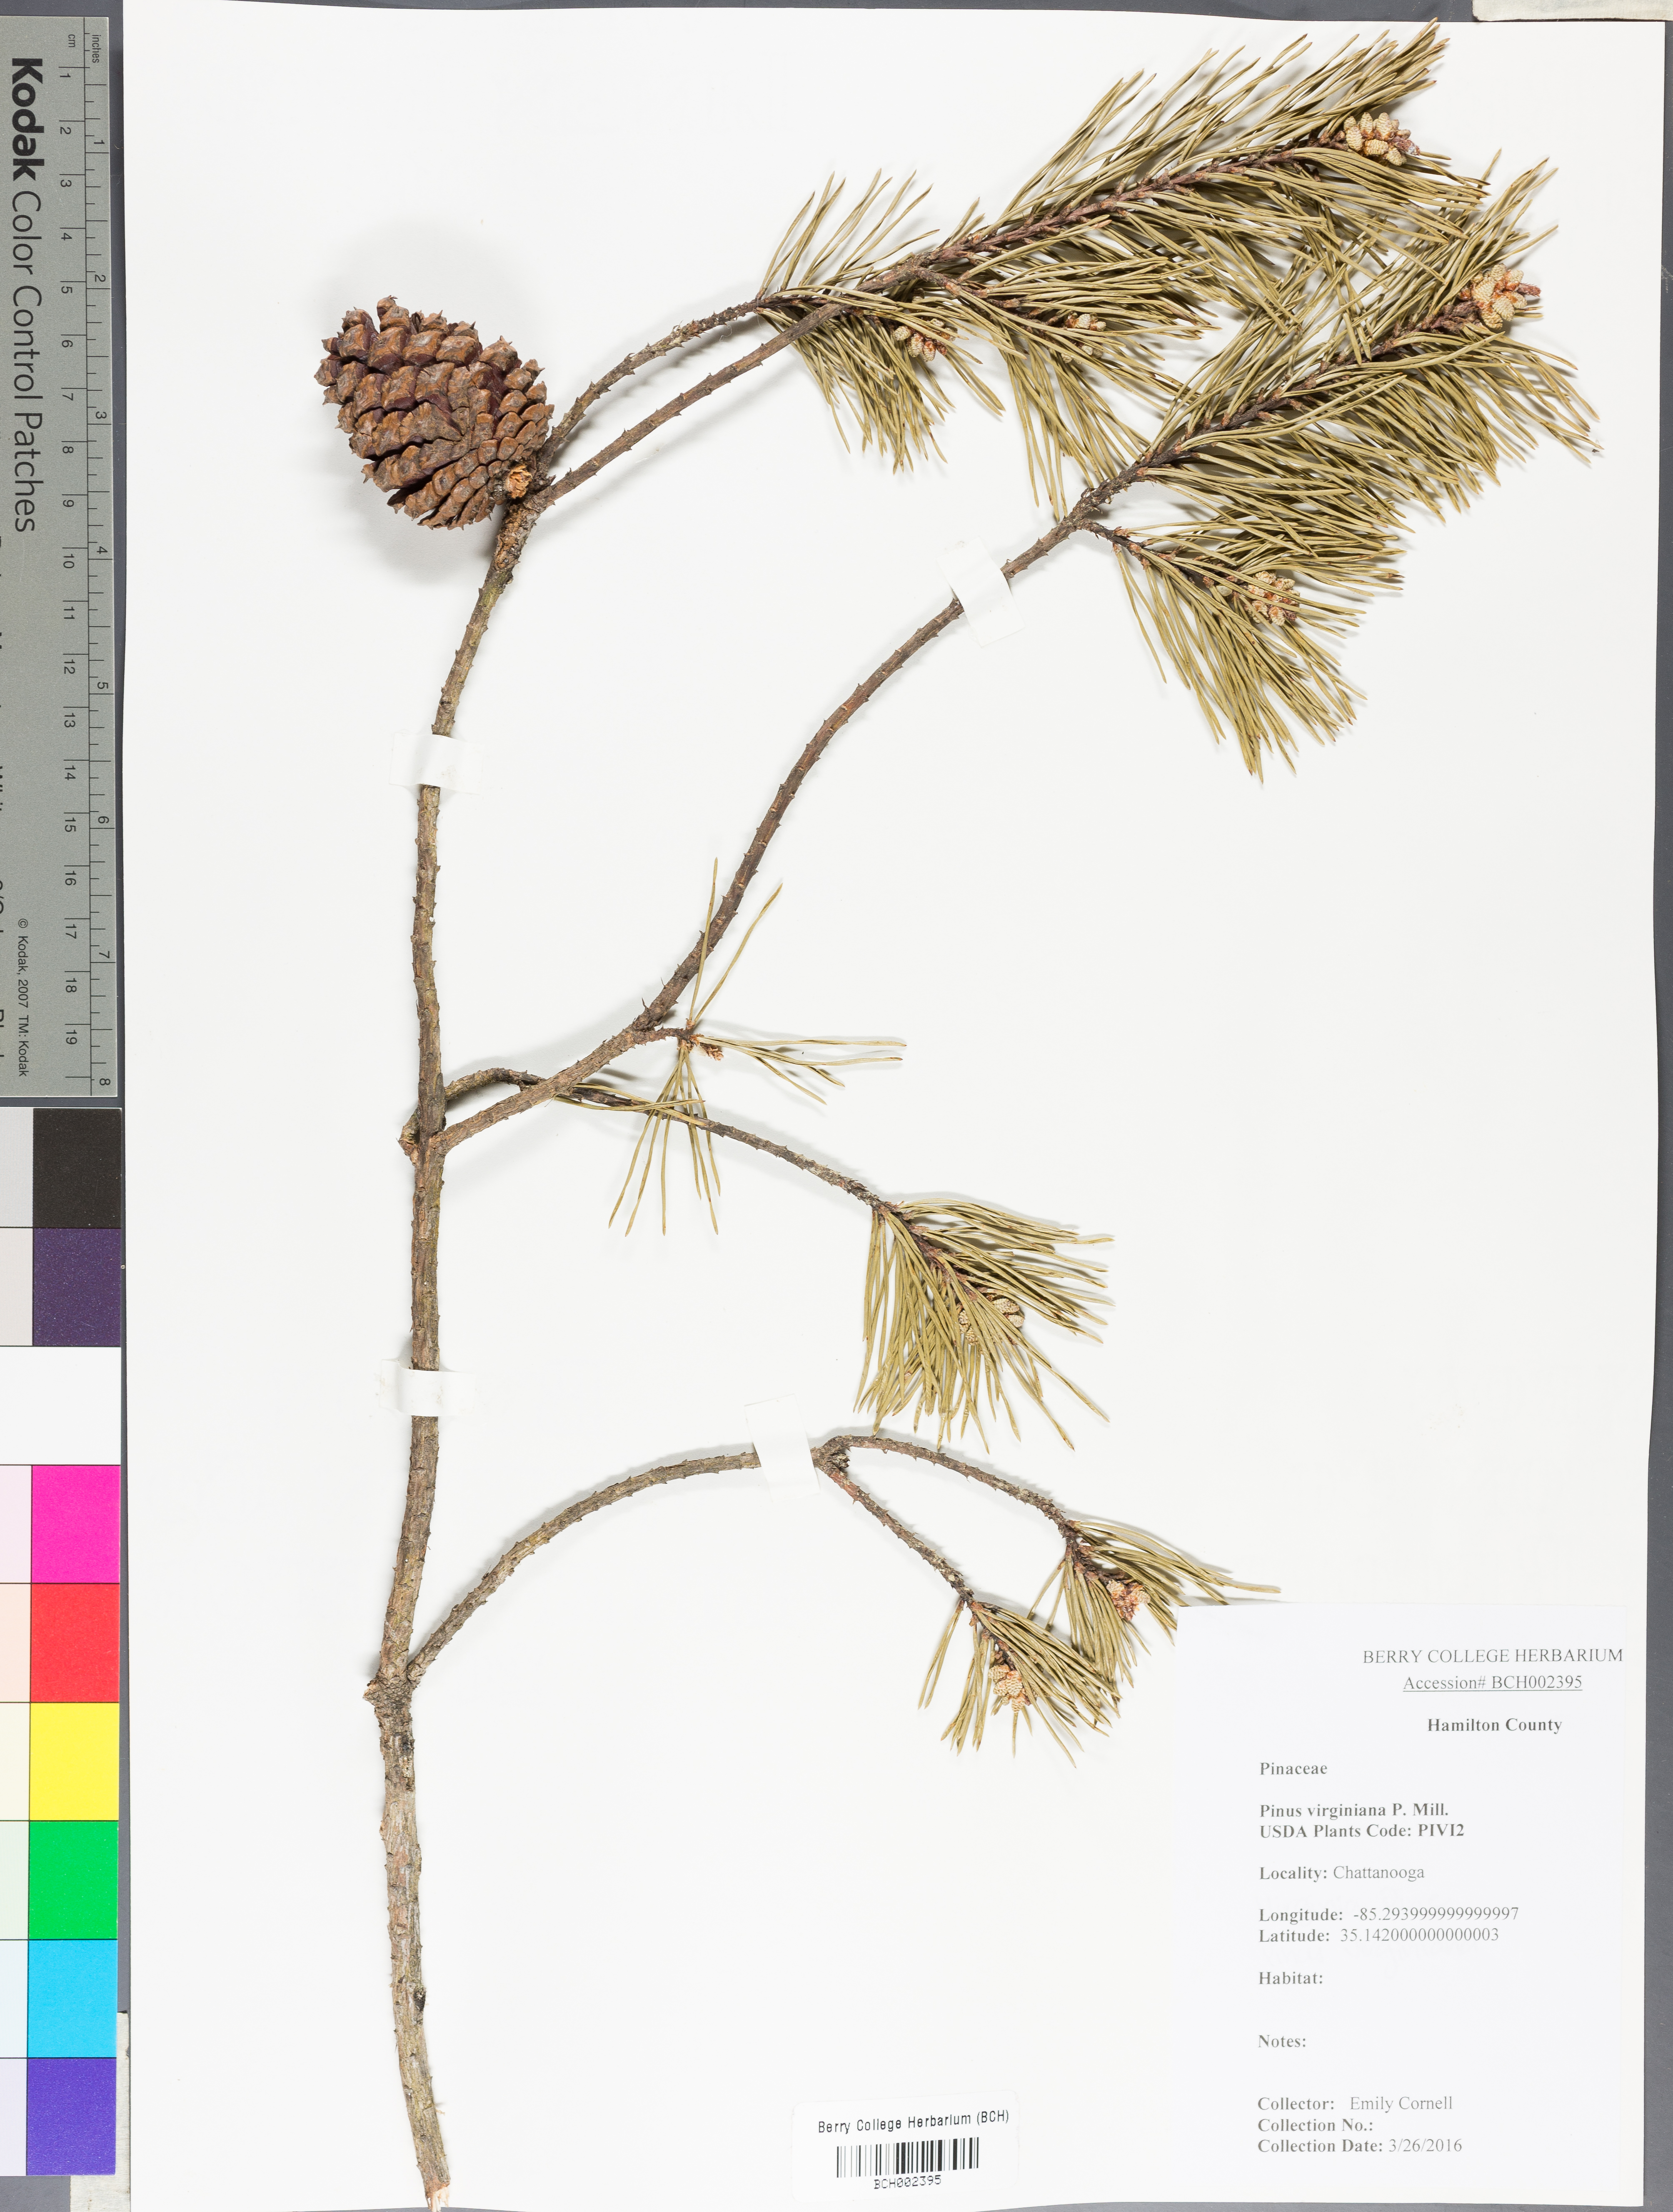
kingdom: Plantae
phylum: Tracheophyta
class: Pinopsida
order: Pinales
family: Pinaceae
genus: Pinus
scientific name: Pinus virginiana
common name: Scrub pine
